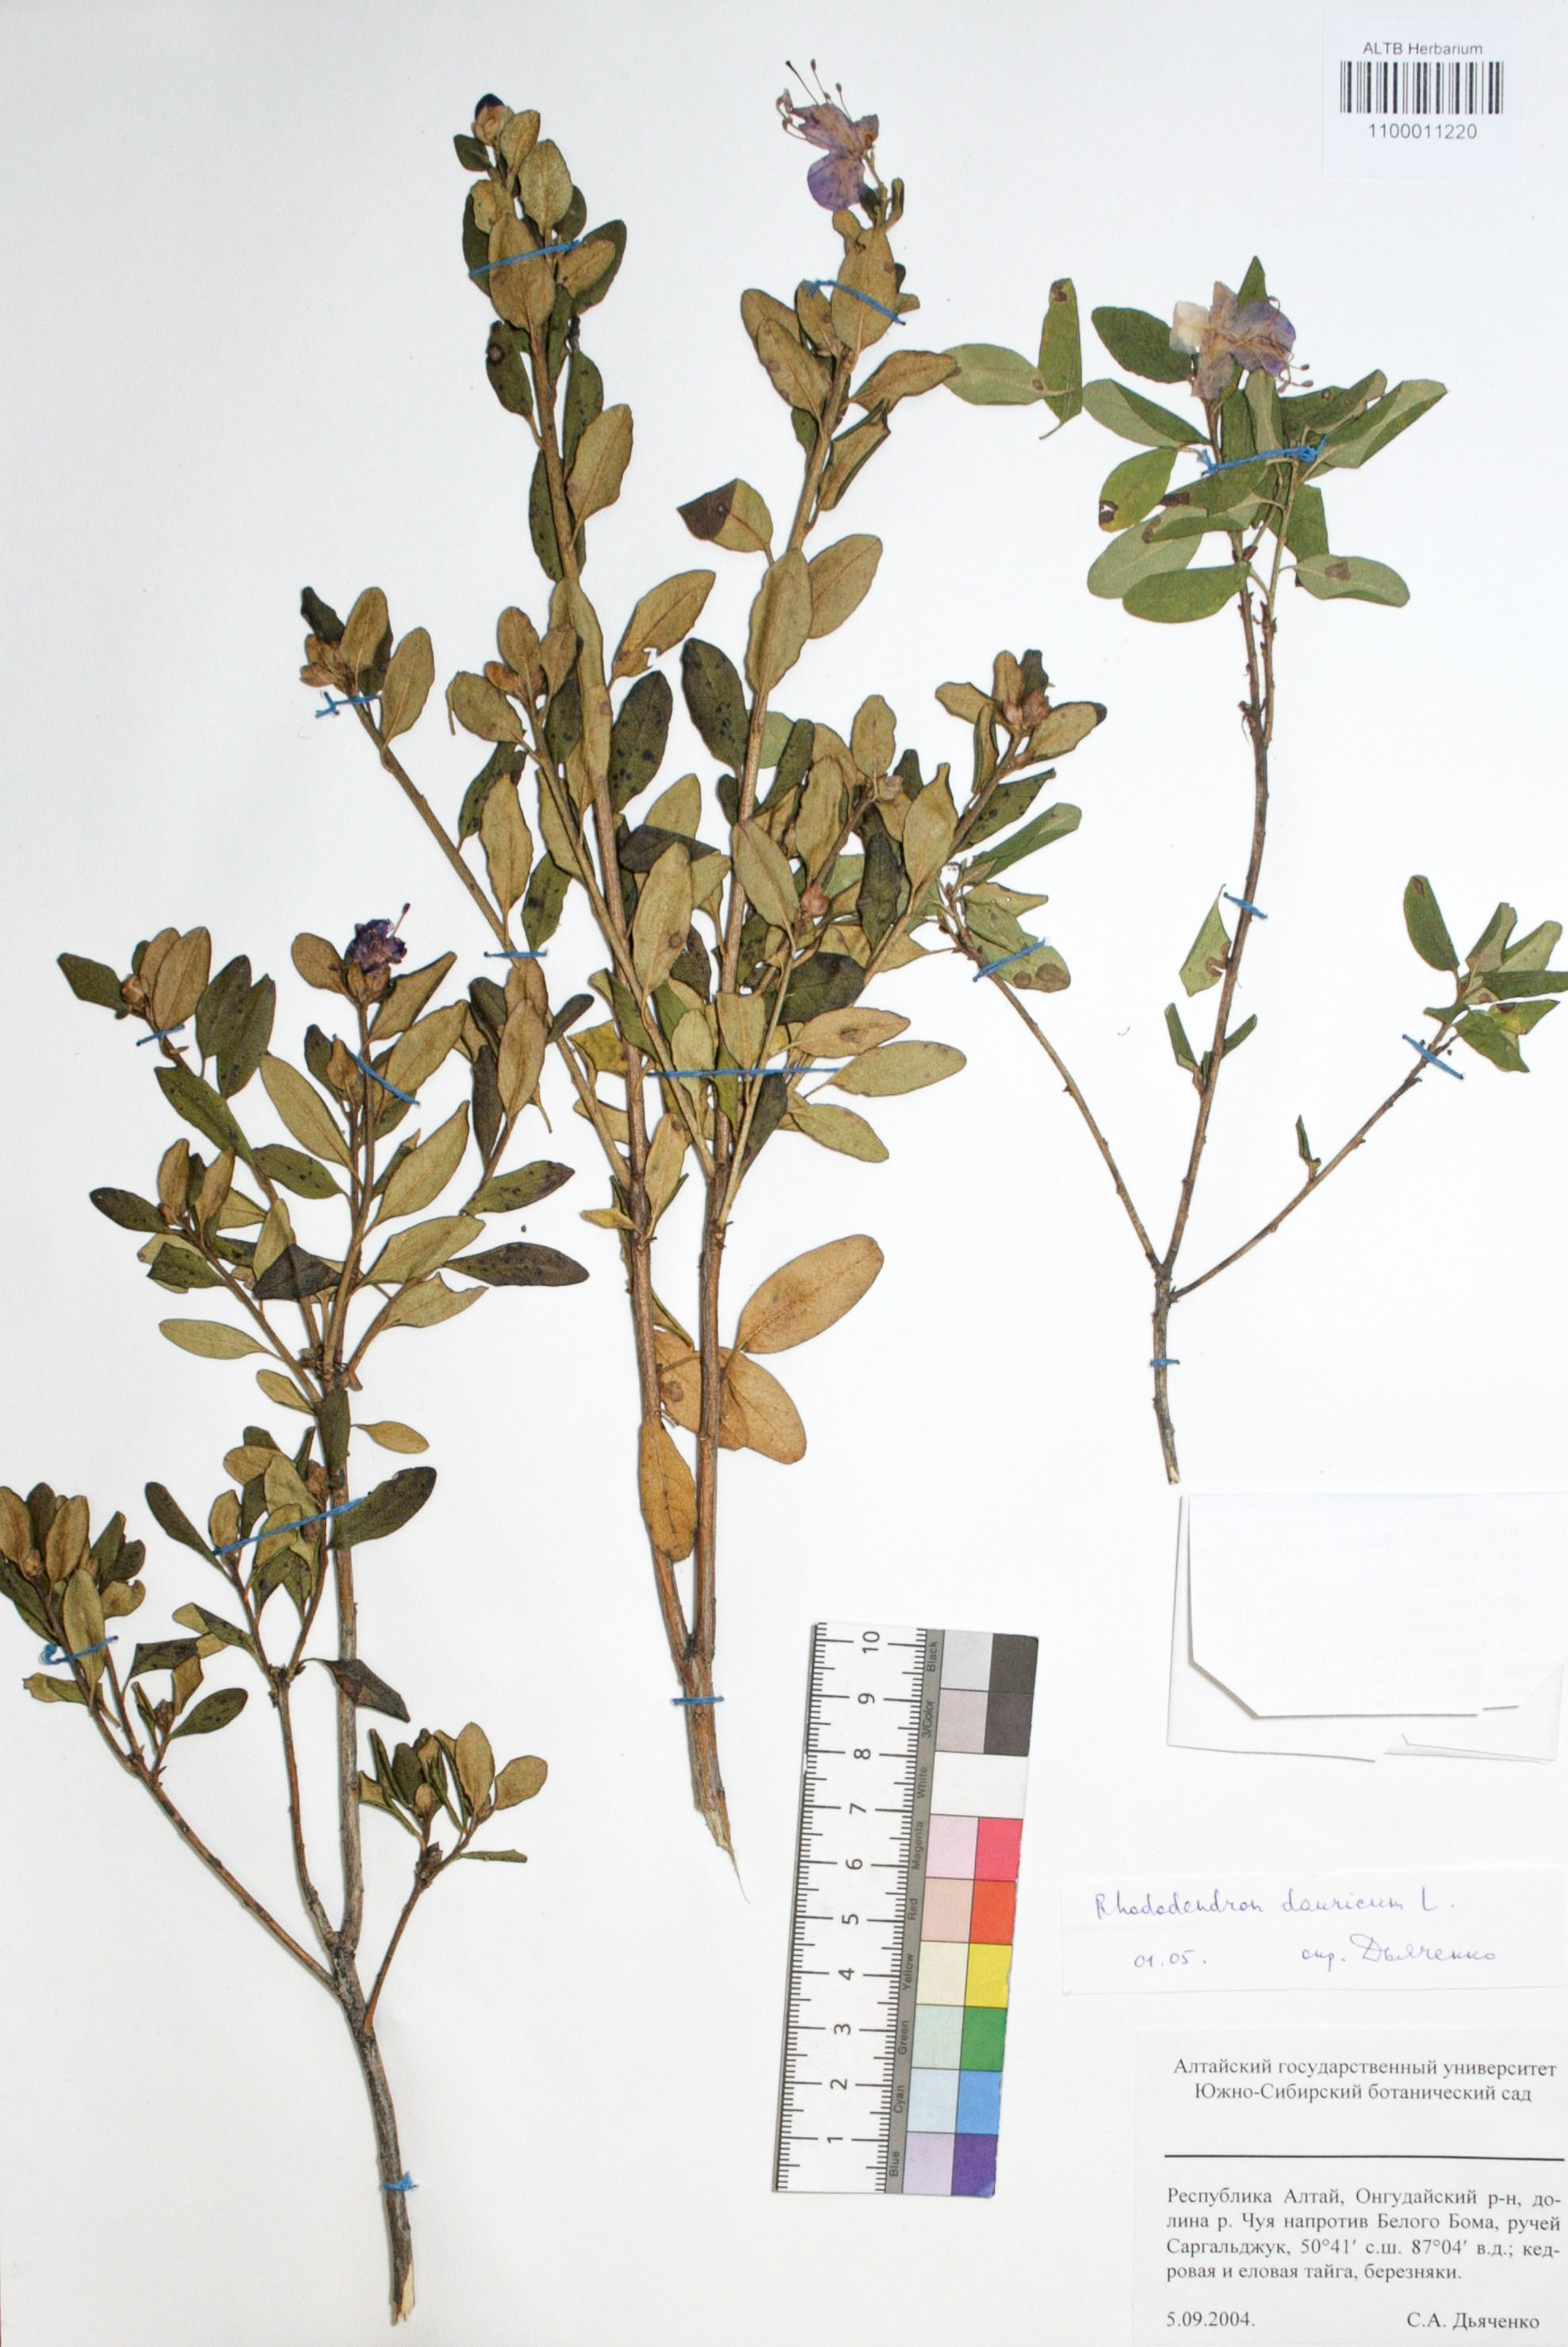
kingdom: Plantae
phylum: Tracheophyta
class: Magnoliopsida
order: Ericales
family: Ericaceae
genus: Rhododendron
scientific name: Rhododendron dahuricum
